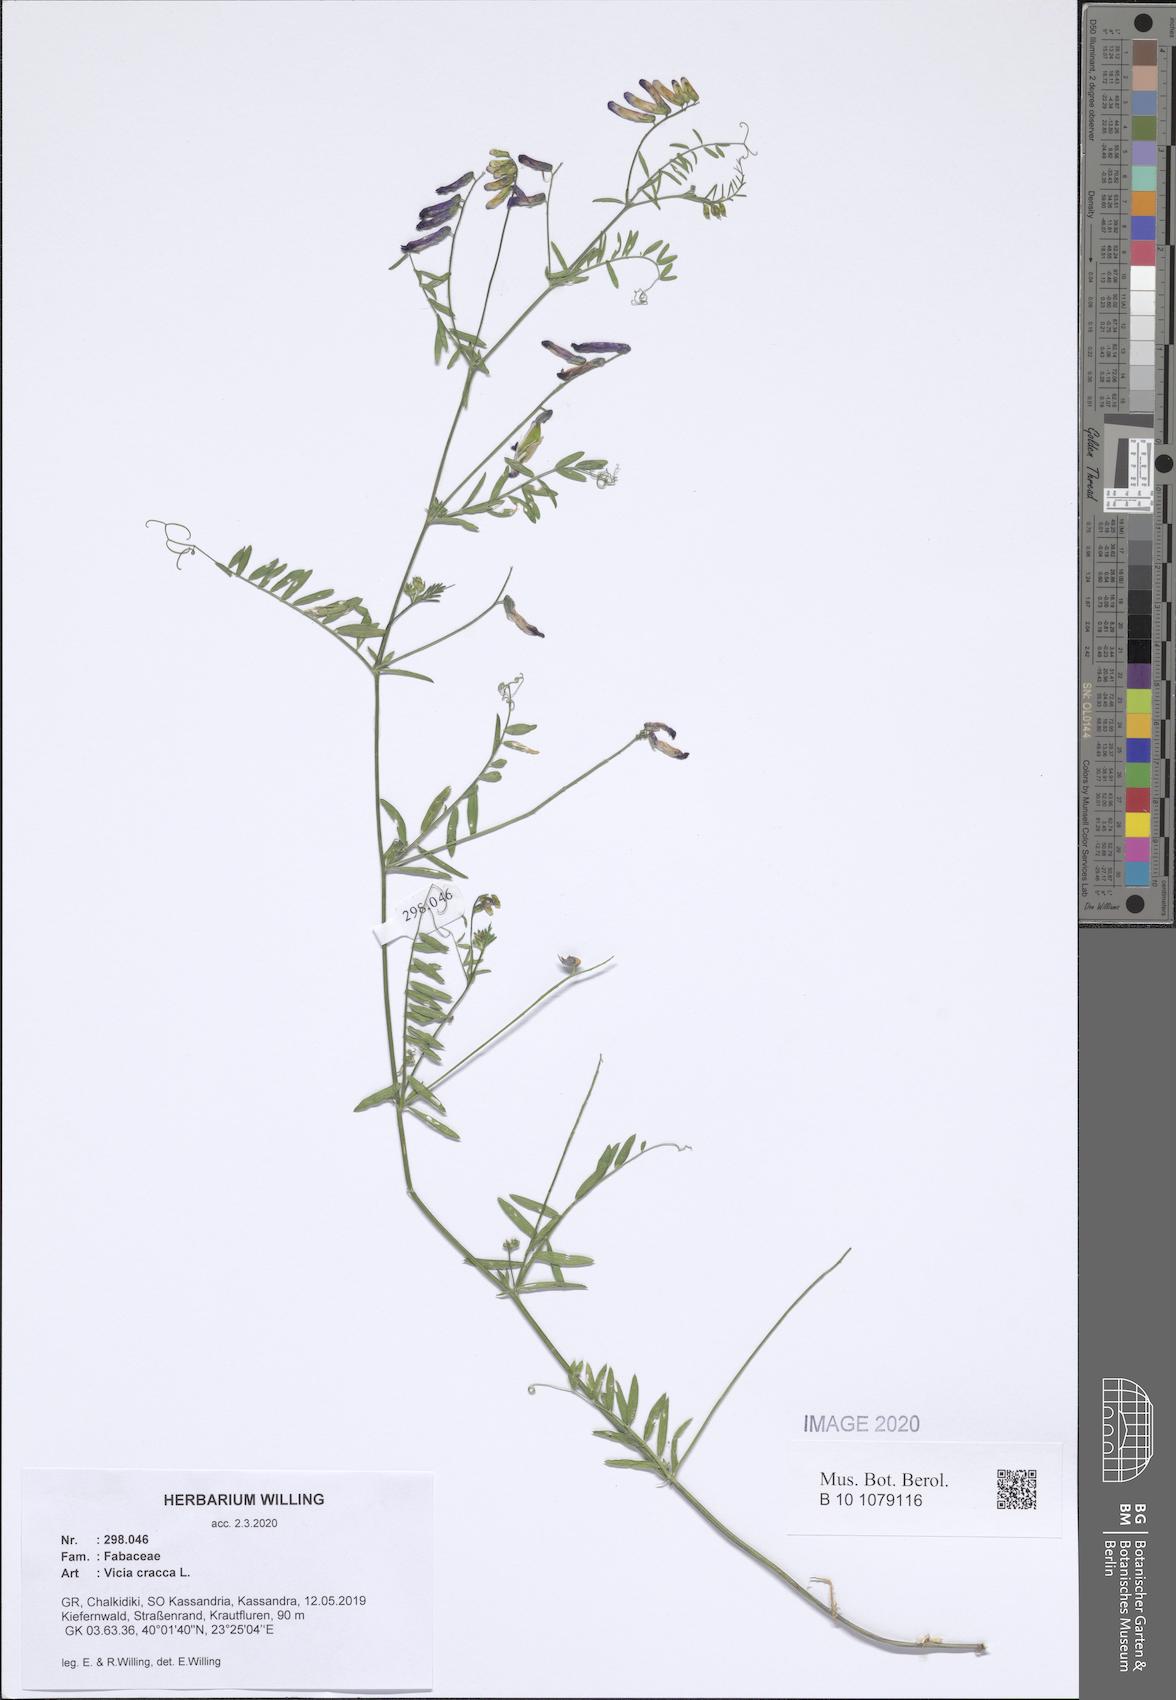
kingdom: Plantae
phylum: Tracheophyta
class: Magnoliopsida
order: Fabales
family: Fabaceae
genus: Vicia
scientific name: Vicia cracca
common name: Bird vetch
